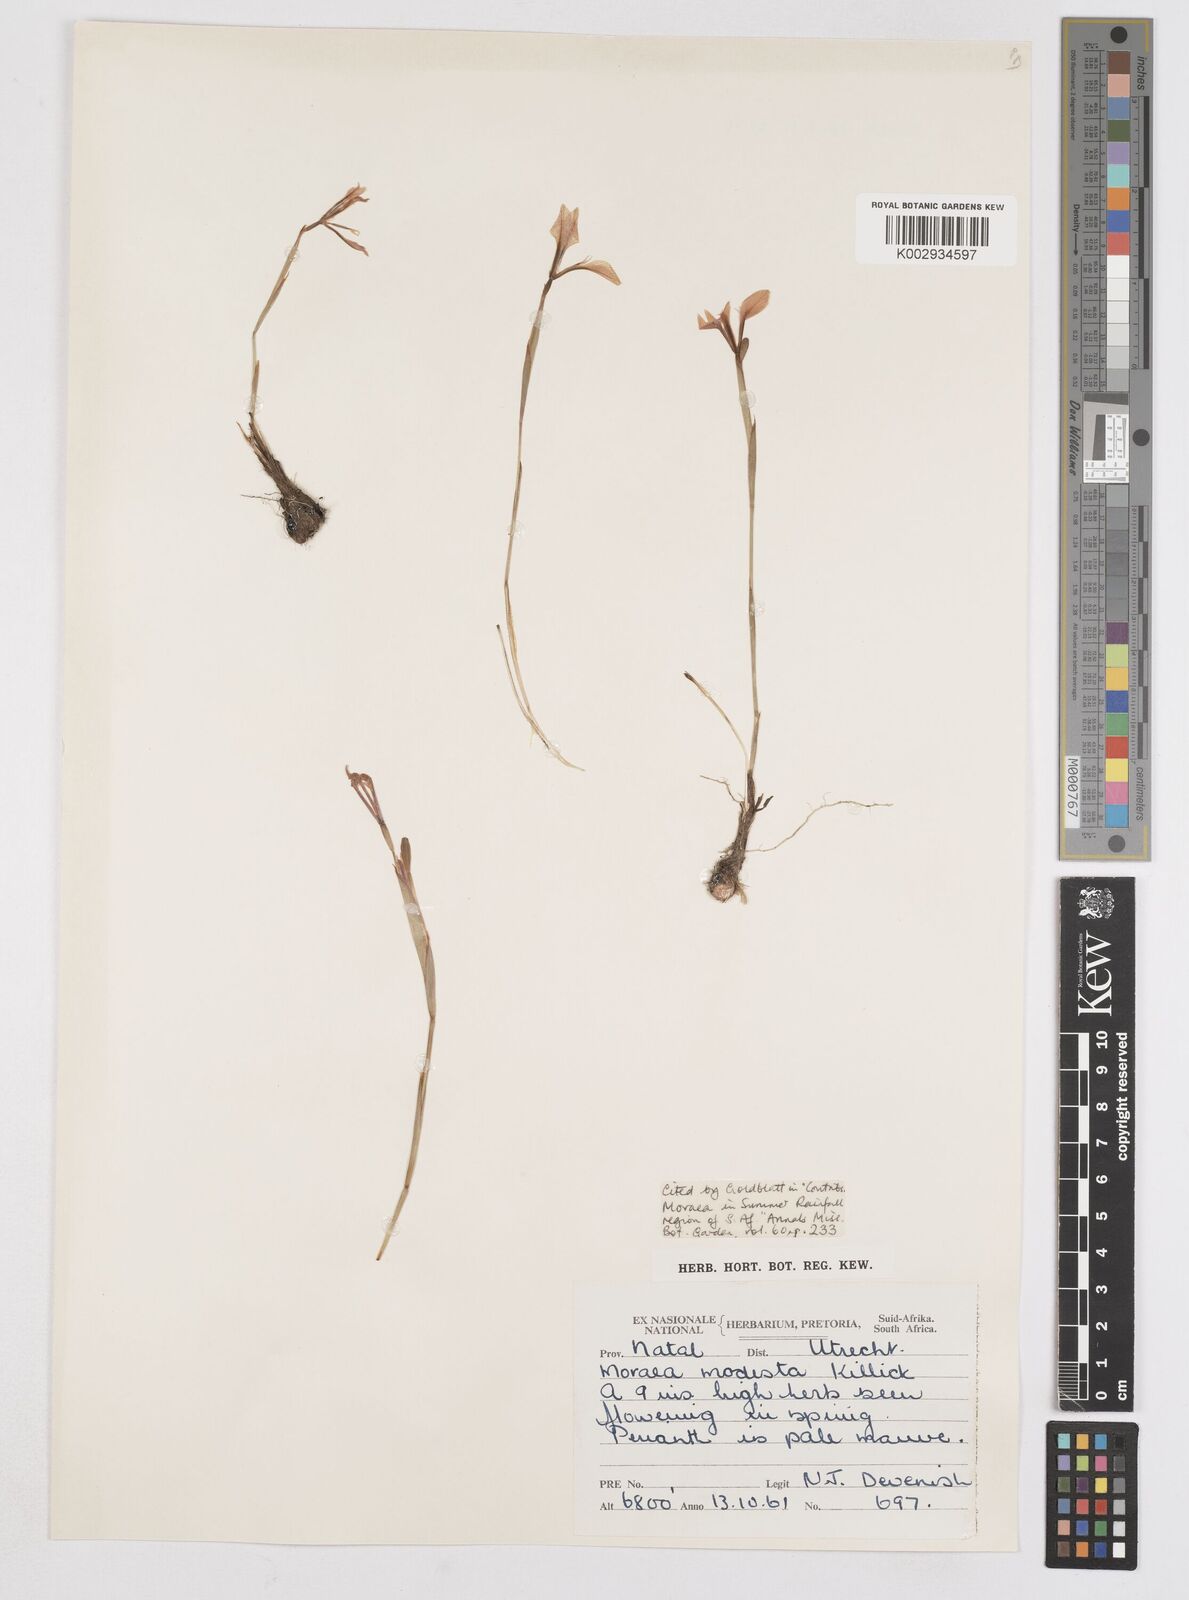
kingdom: Plantae
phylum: Tracheophyta
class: Liliopsida
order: Asparagales
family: Iridaceae
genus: Moraea
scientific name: Moraea modesta
